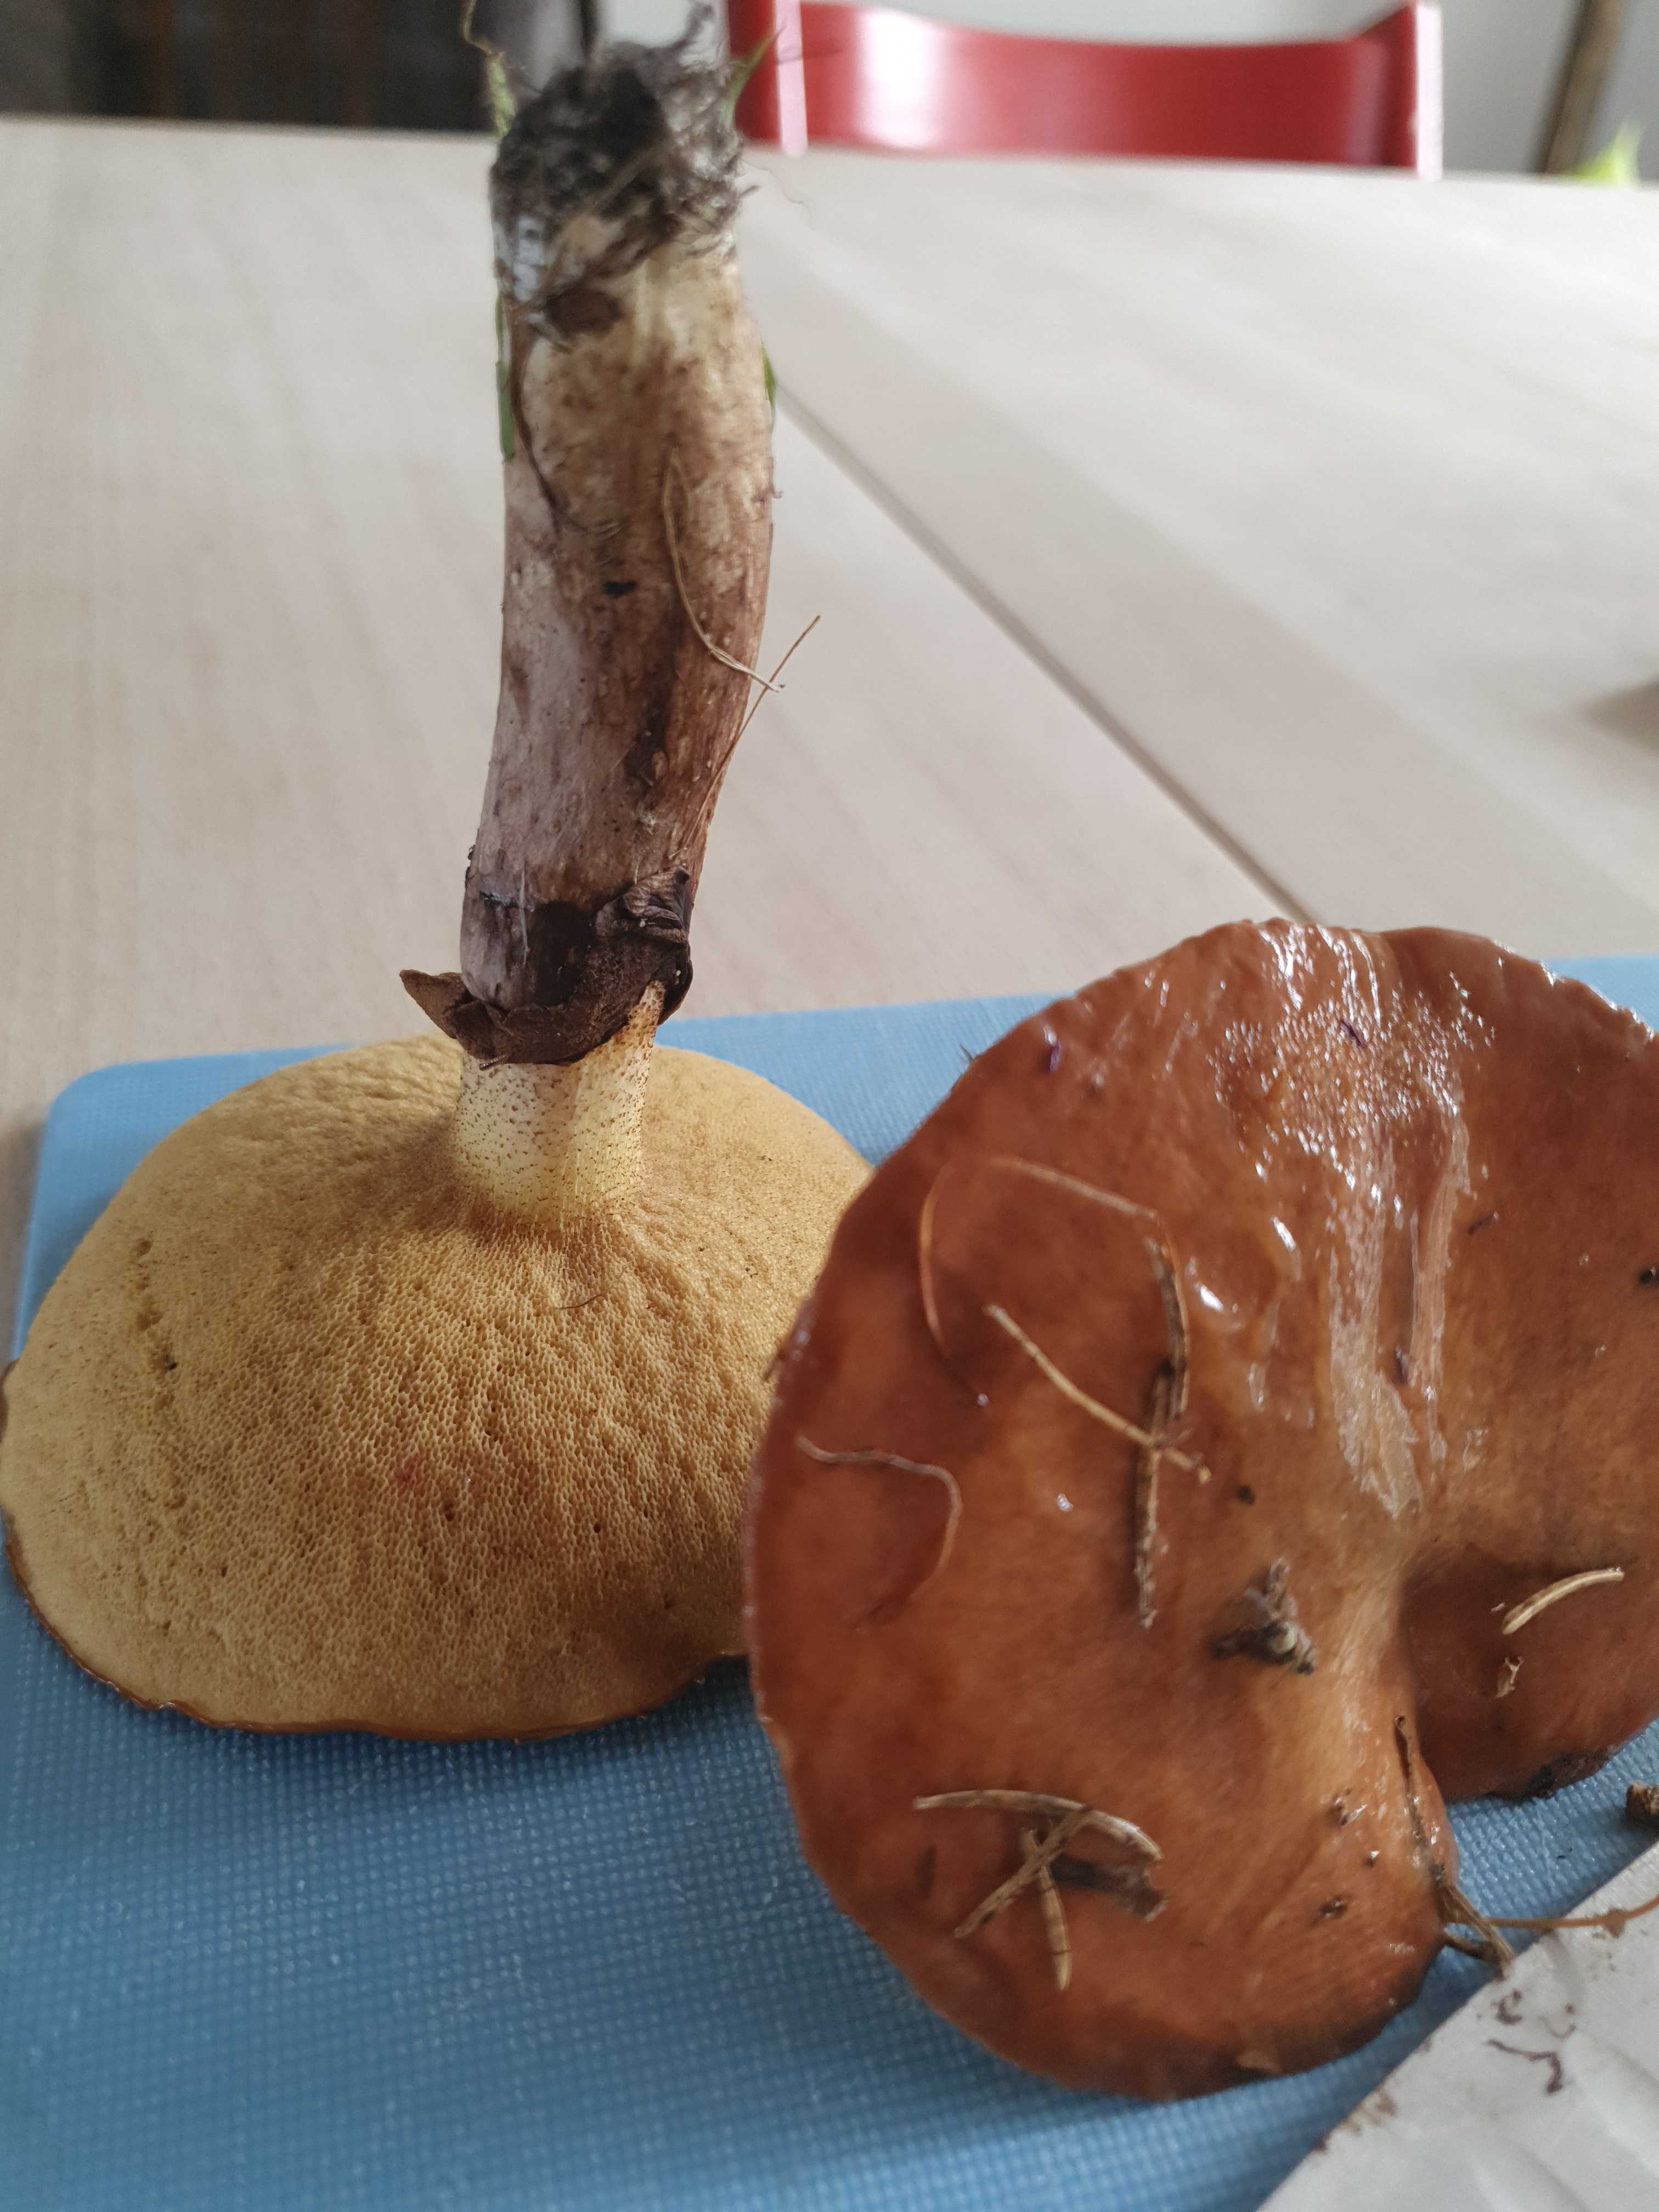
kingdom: Fungi
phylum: Basidiomycota
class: Agaricomycetes
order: Boletales
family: Suillaceae
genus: Suillus
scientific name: Suillus luteus
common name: brungul slimrørhat
